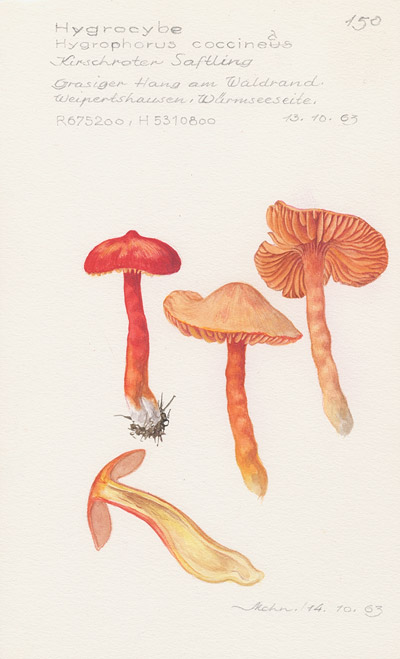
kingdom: Fungi
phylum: Basidiomycota
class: Agaricomycetes
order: Agaricales
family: Hygrophoraceae
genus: Hygrocybe
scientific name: Hygrocybe coccinea
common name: Scarlet hood
